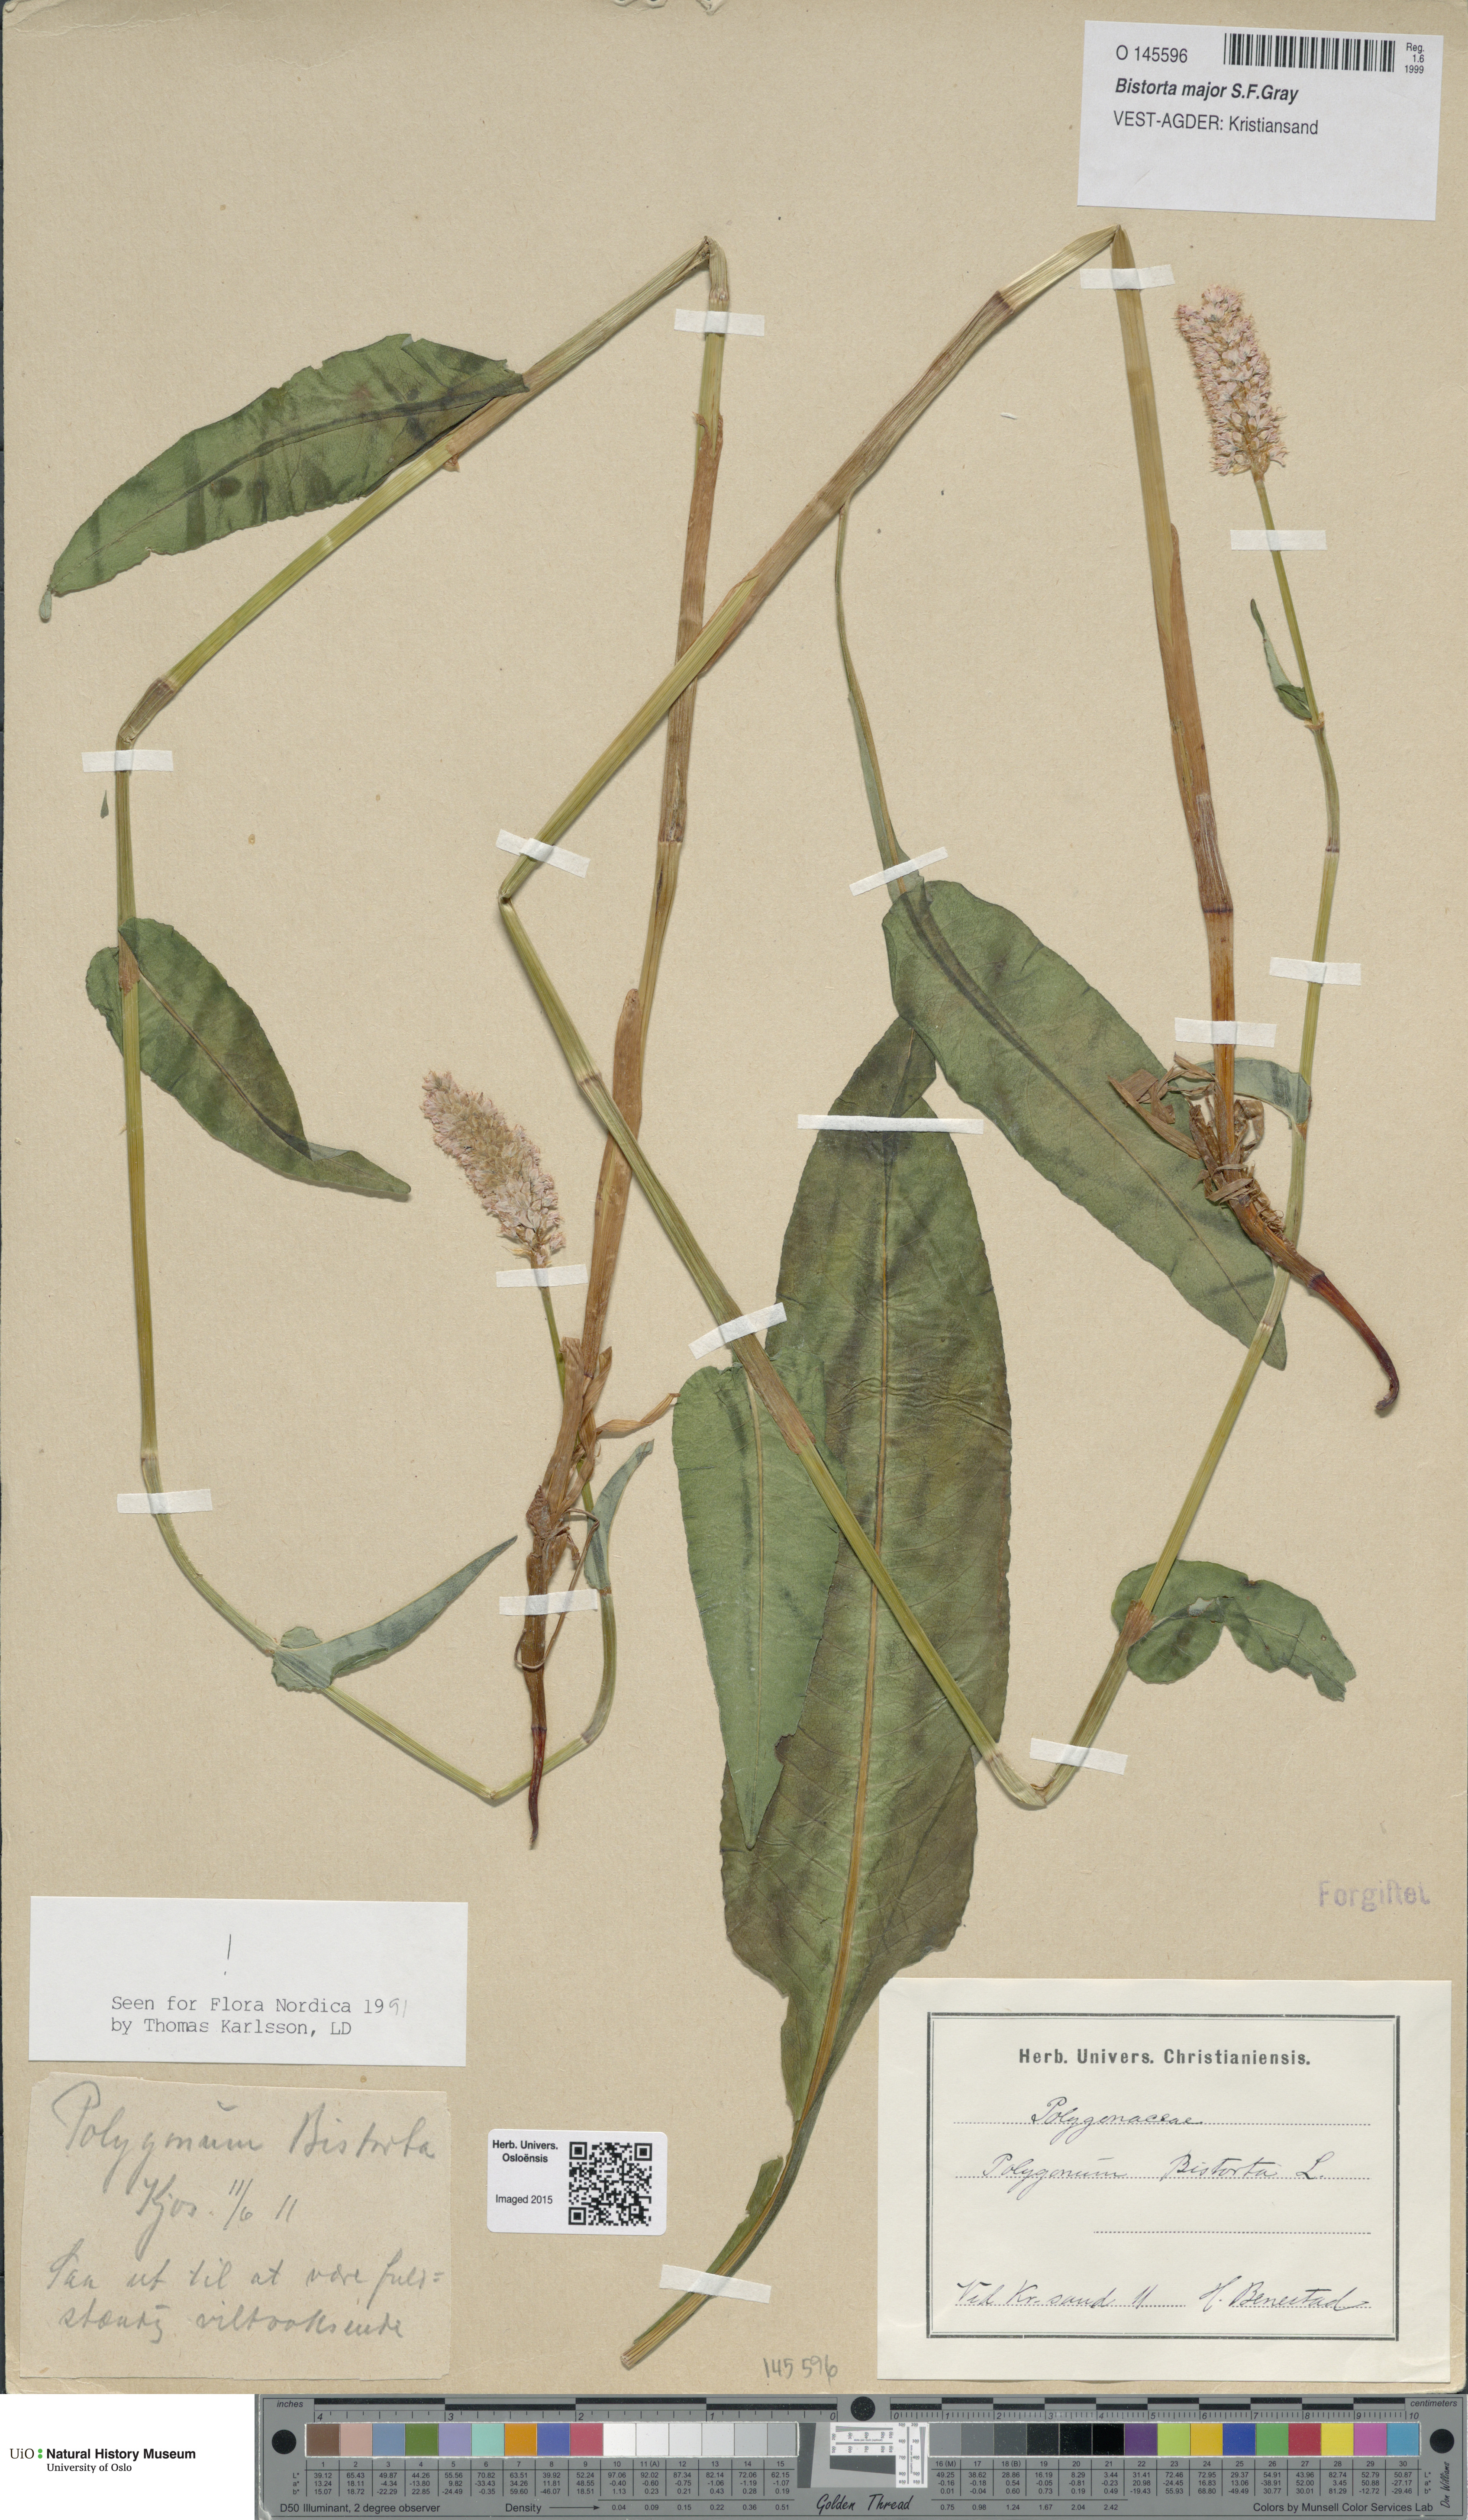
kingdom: Plantae
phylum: Tracheophyta
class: Magnoliopsida
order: Caryophyllales
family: Polygonaceae
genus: Bistorta
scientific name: Bistorta officinalis
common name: Common bistort
